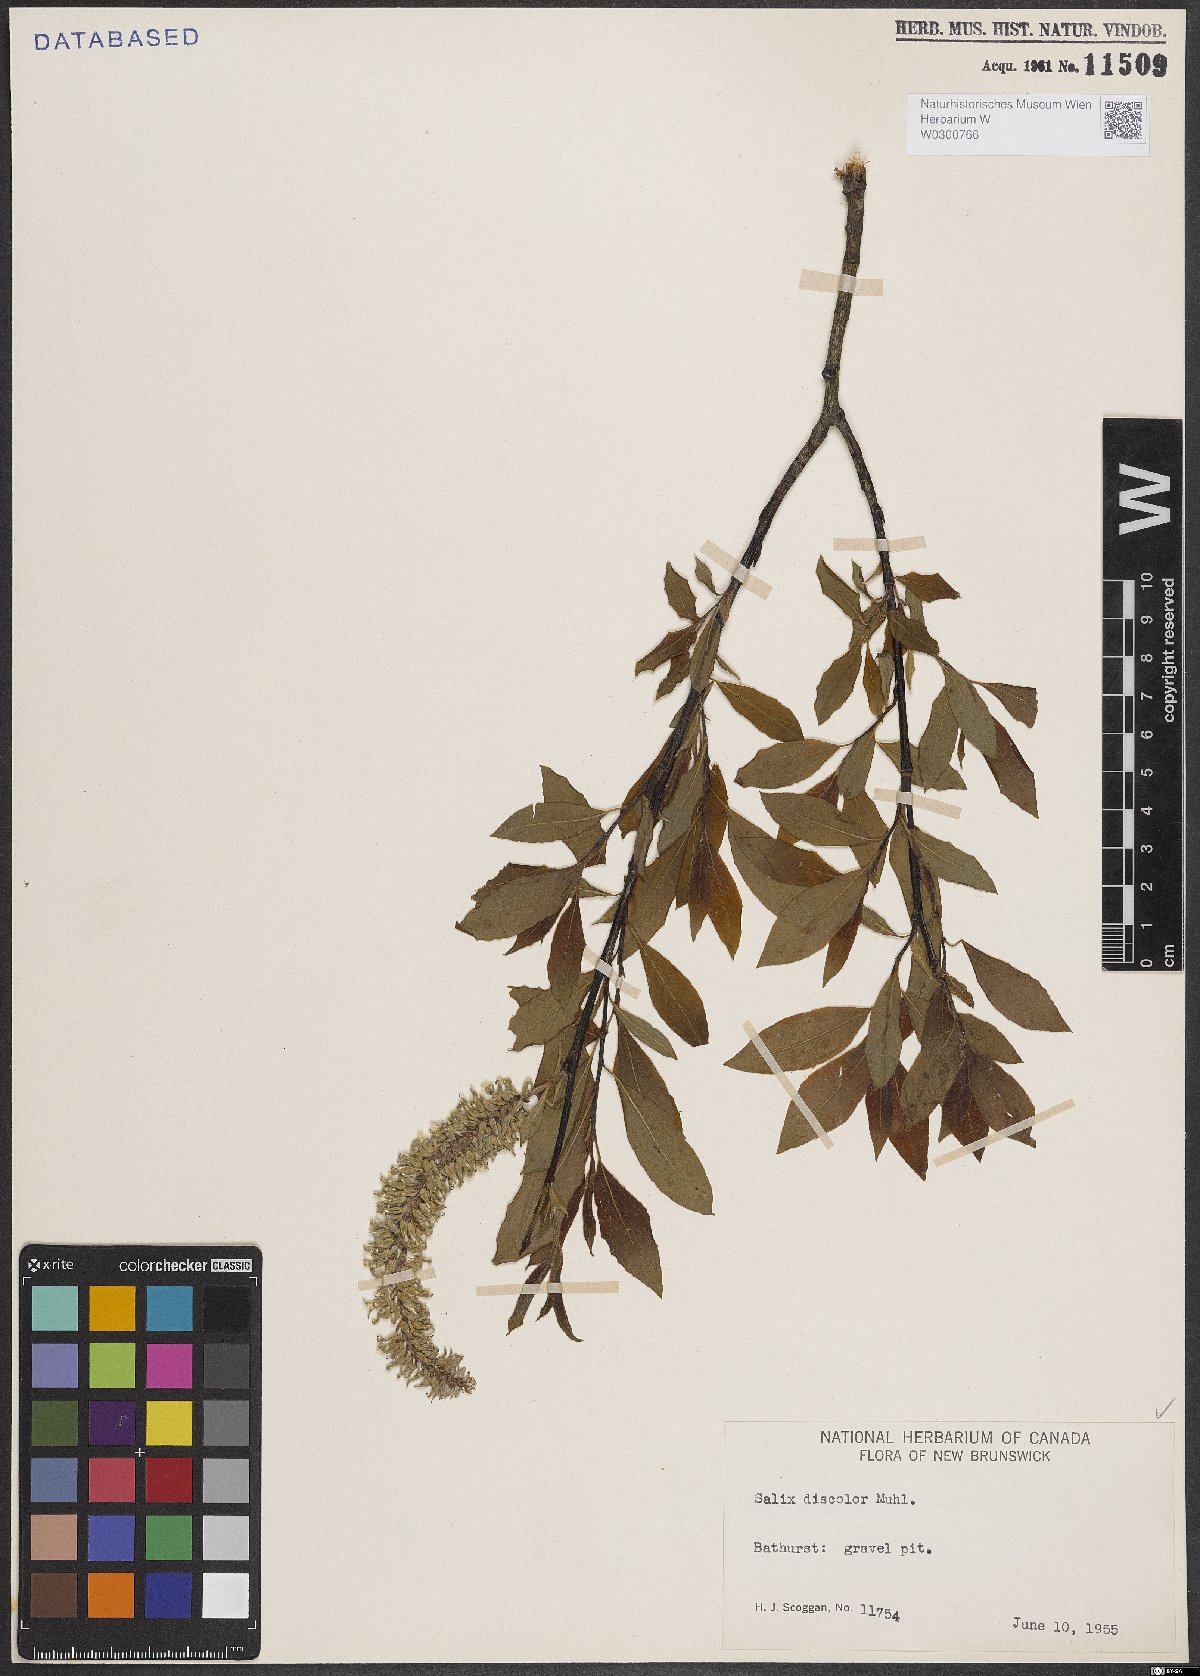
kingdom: Plantae
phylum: Tracheophyta
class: Magnoliopsida
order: Malpighiales
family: Salicaceae
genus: Salix
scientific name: Salix discolor
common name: Glaucous willow
